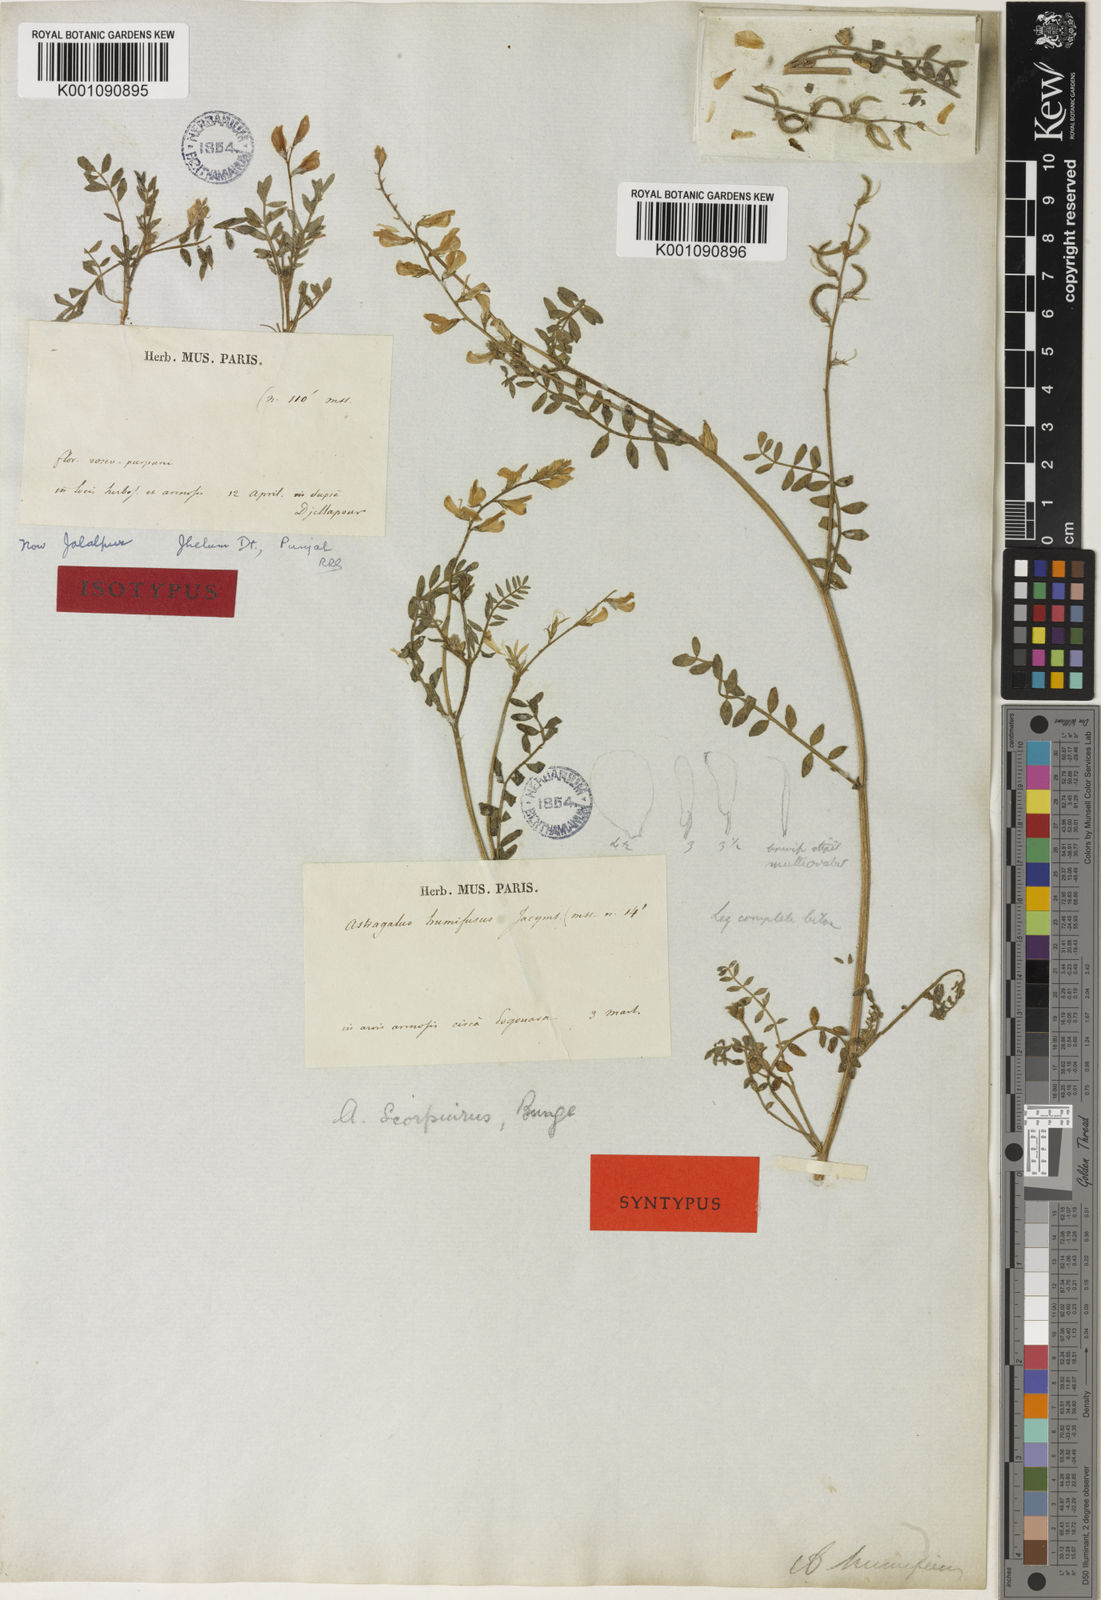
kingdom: Plantae
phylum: Tracheophyta
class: Magnoliopsida
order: Fabales
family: Fabaceae
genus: Astragalus
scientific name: Astragalus
